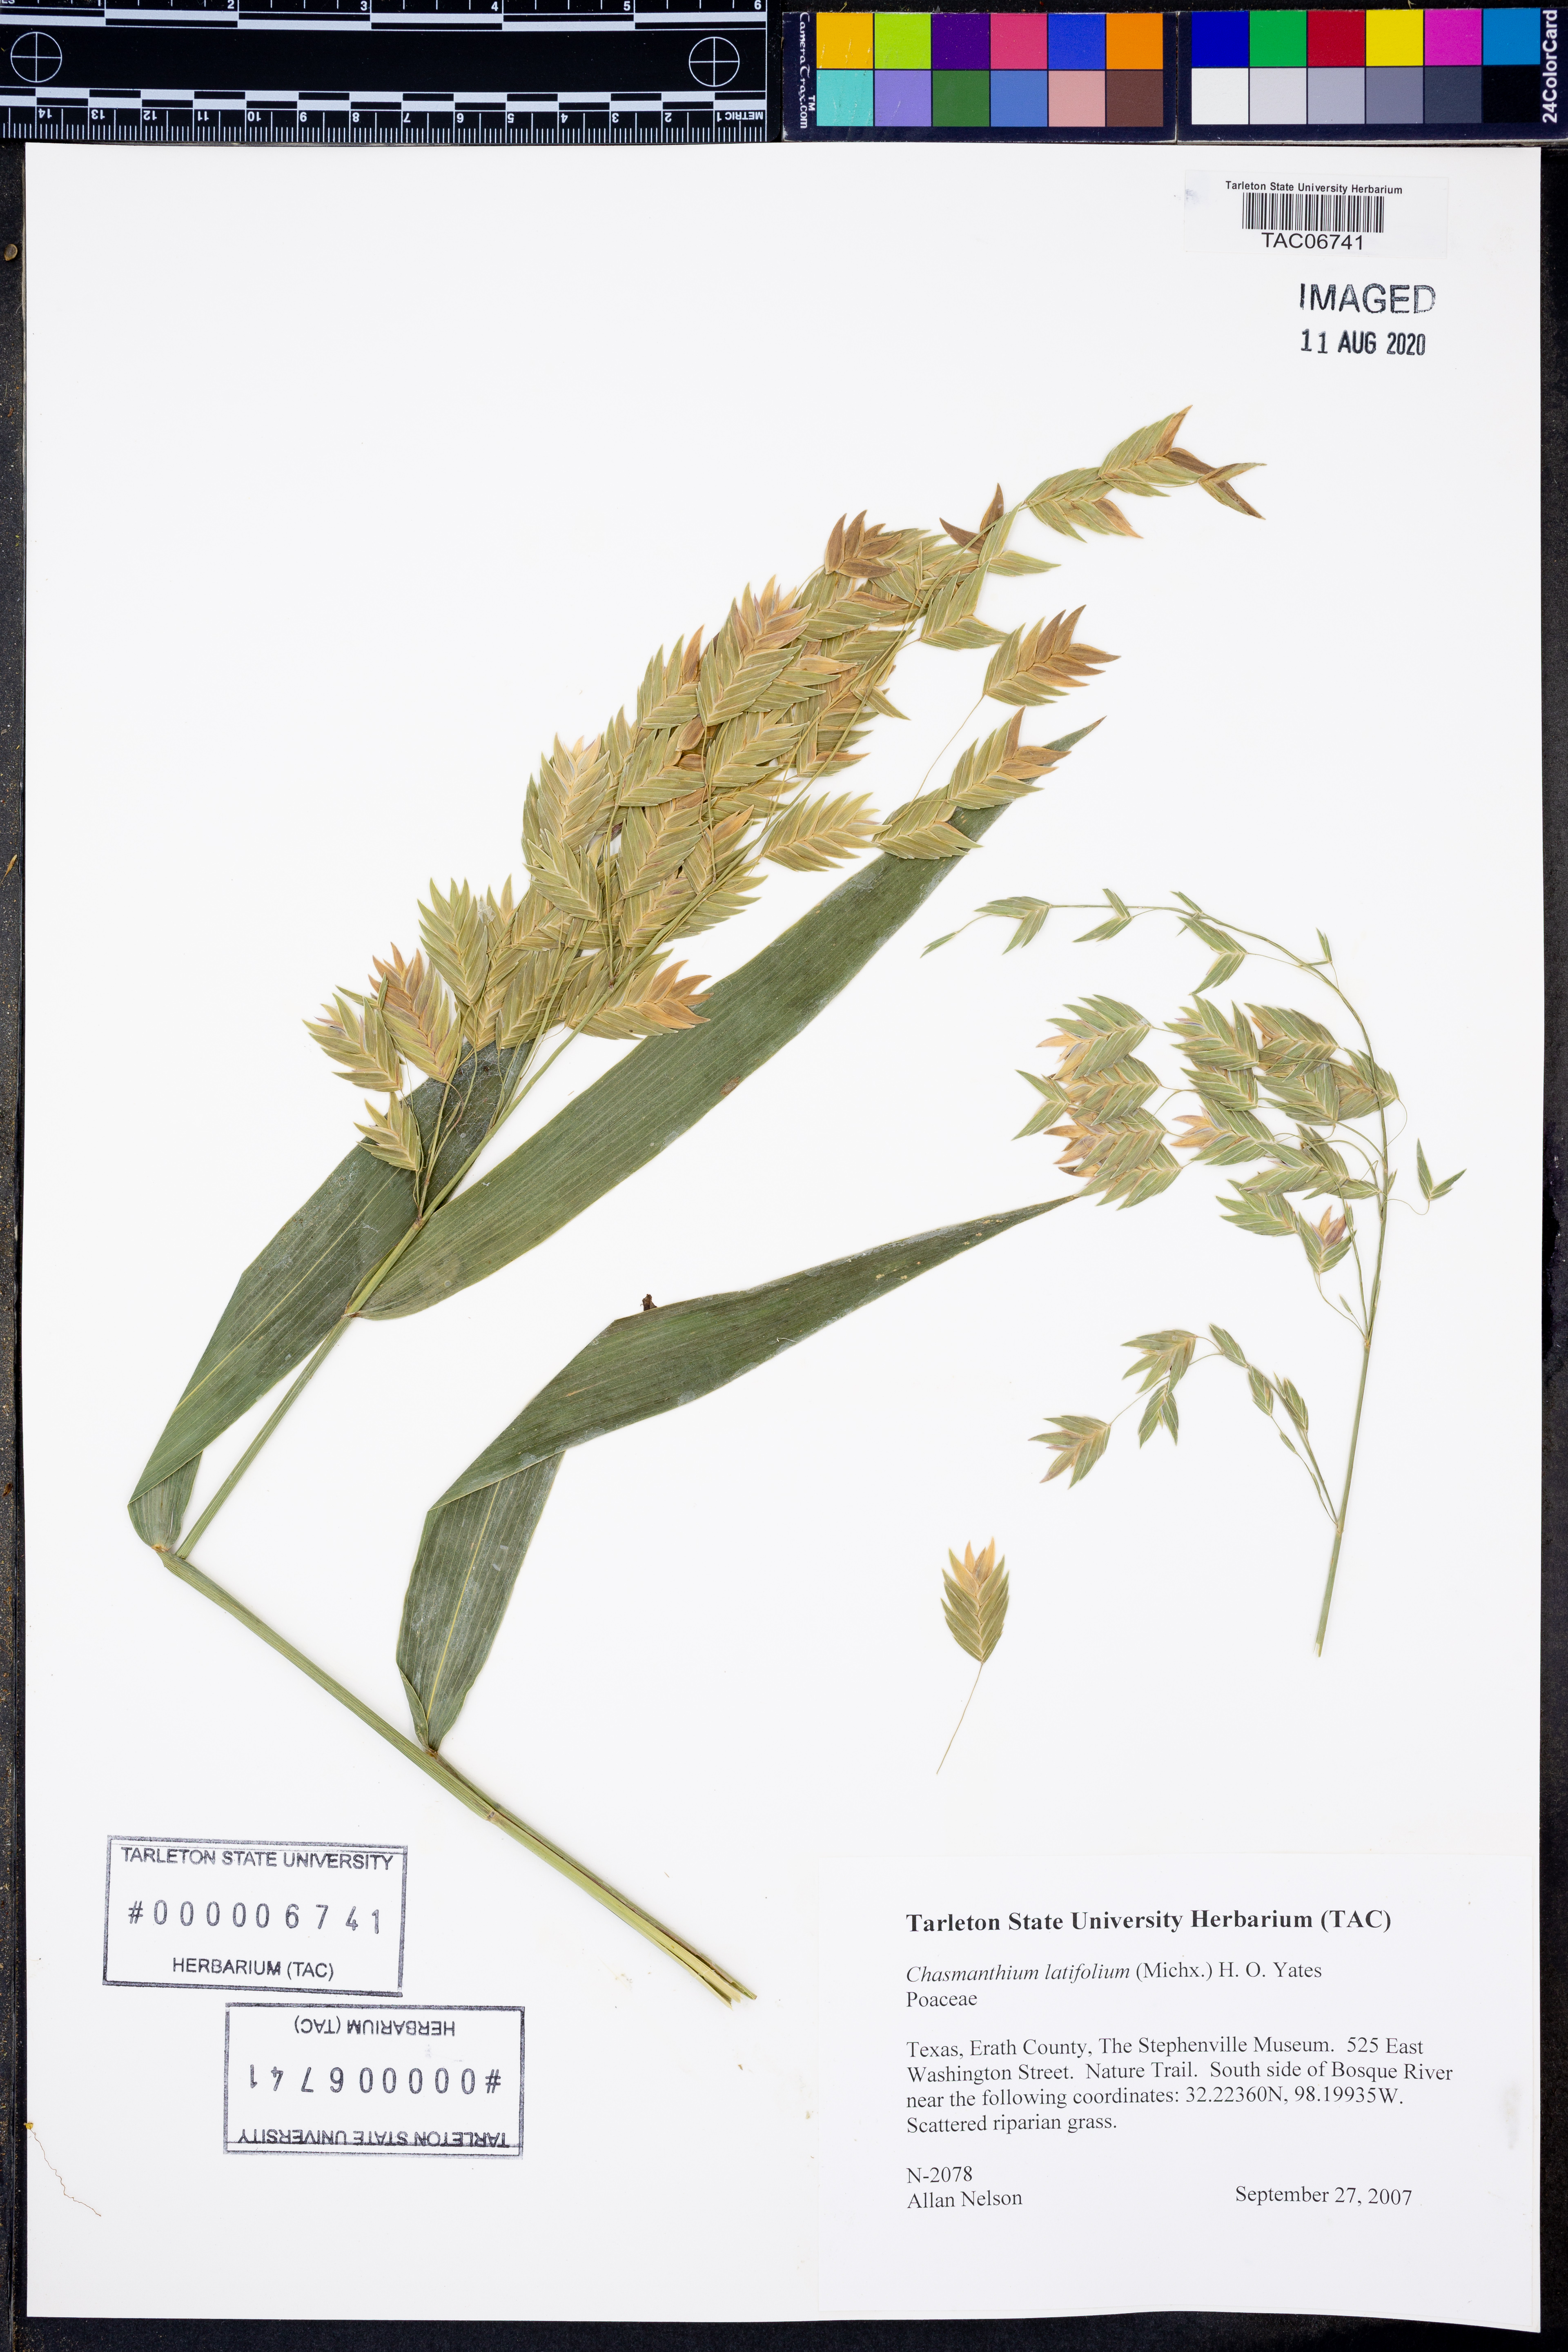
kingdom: Plantae
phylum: Tracheophyta
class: Liliopsida
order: Poales
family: Poaceae
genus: Chasmanthium
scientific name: Chasmanthium latifolium
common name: Broad-leaved chasmanthium
